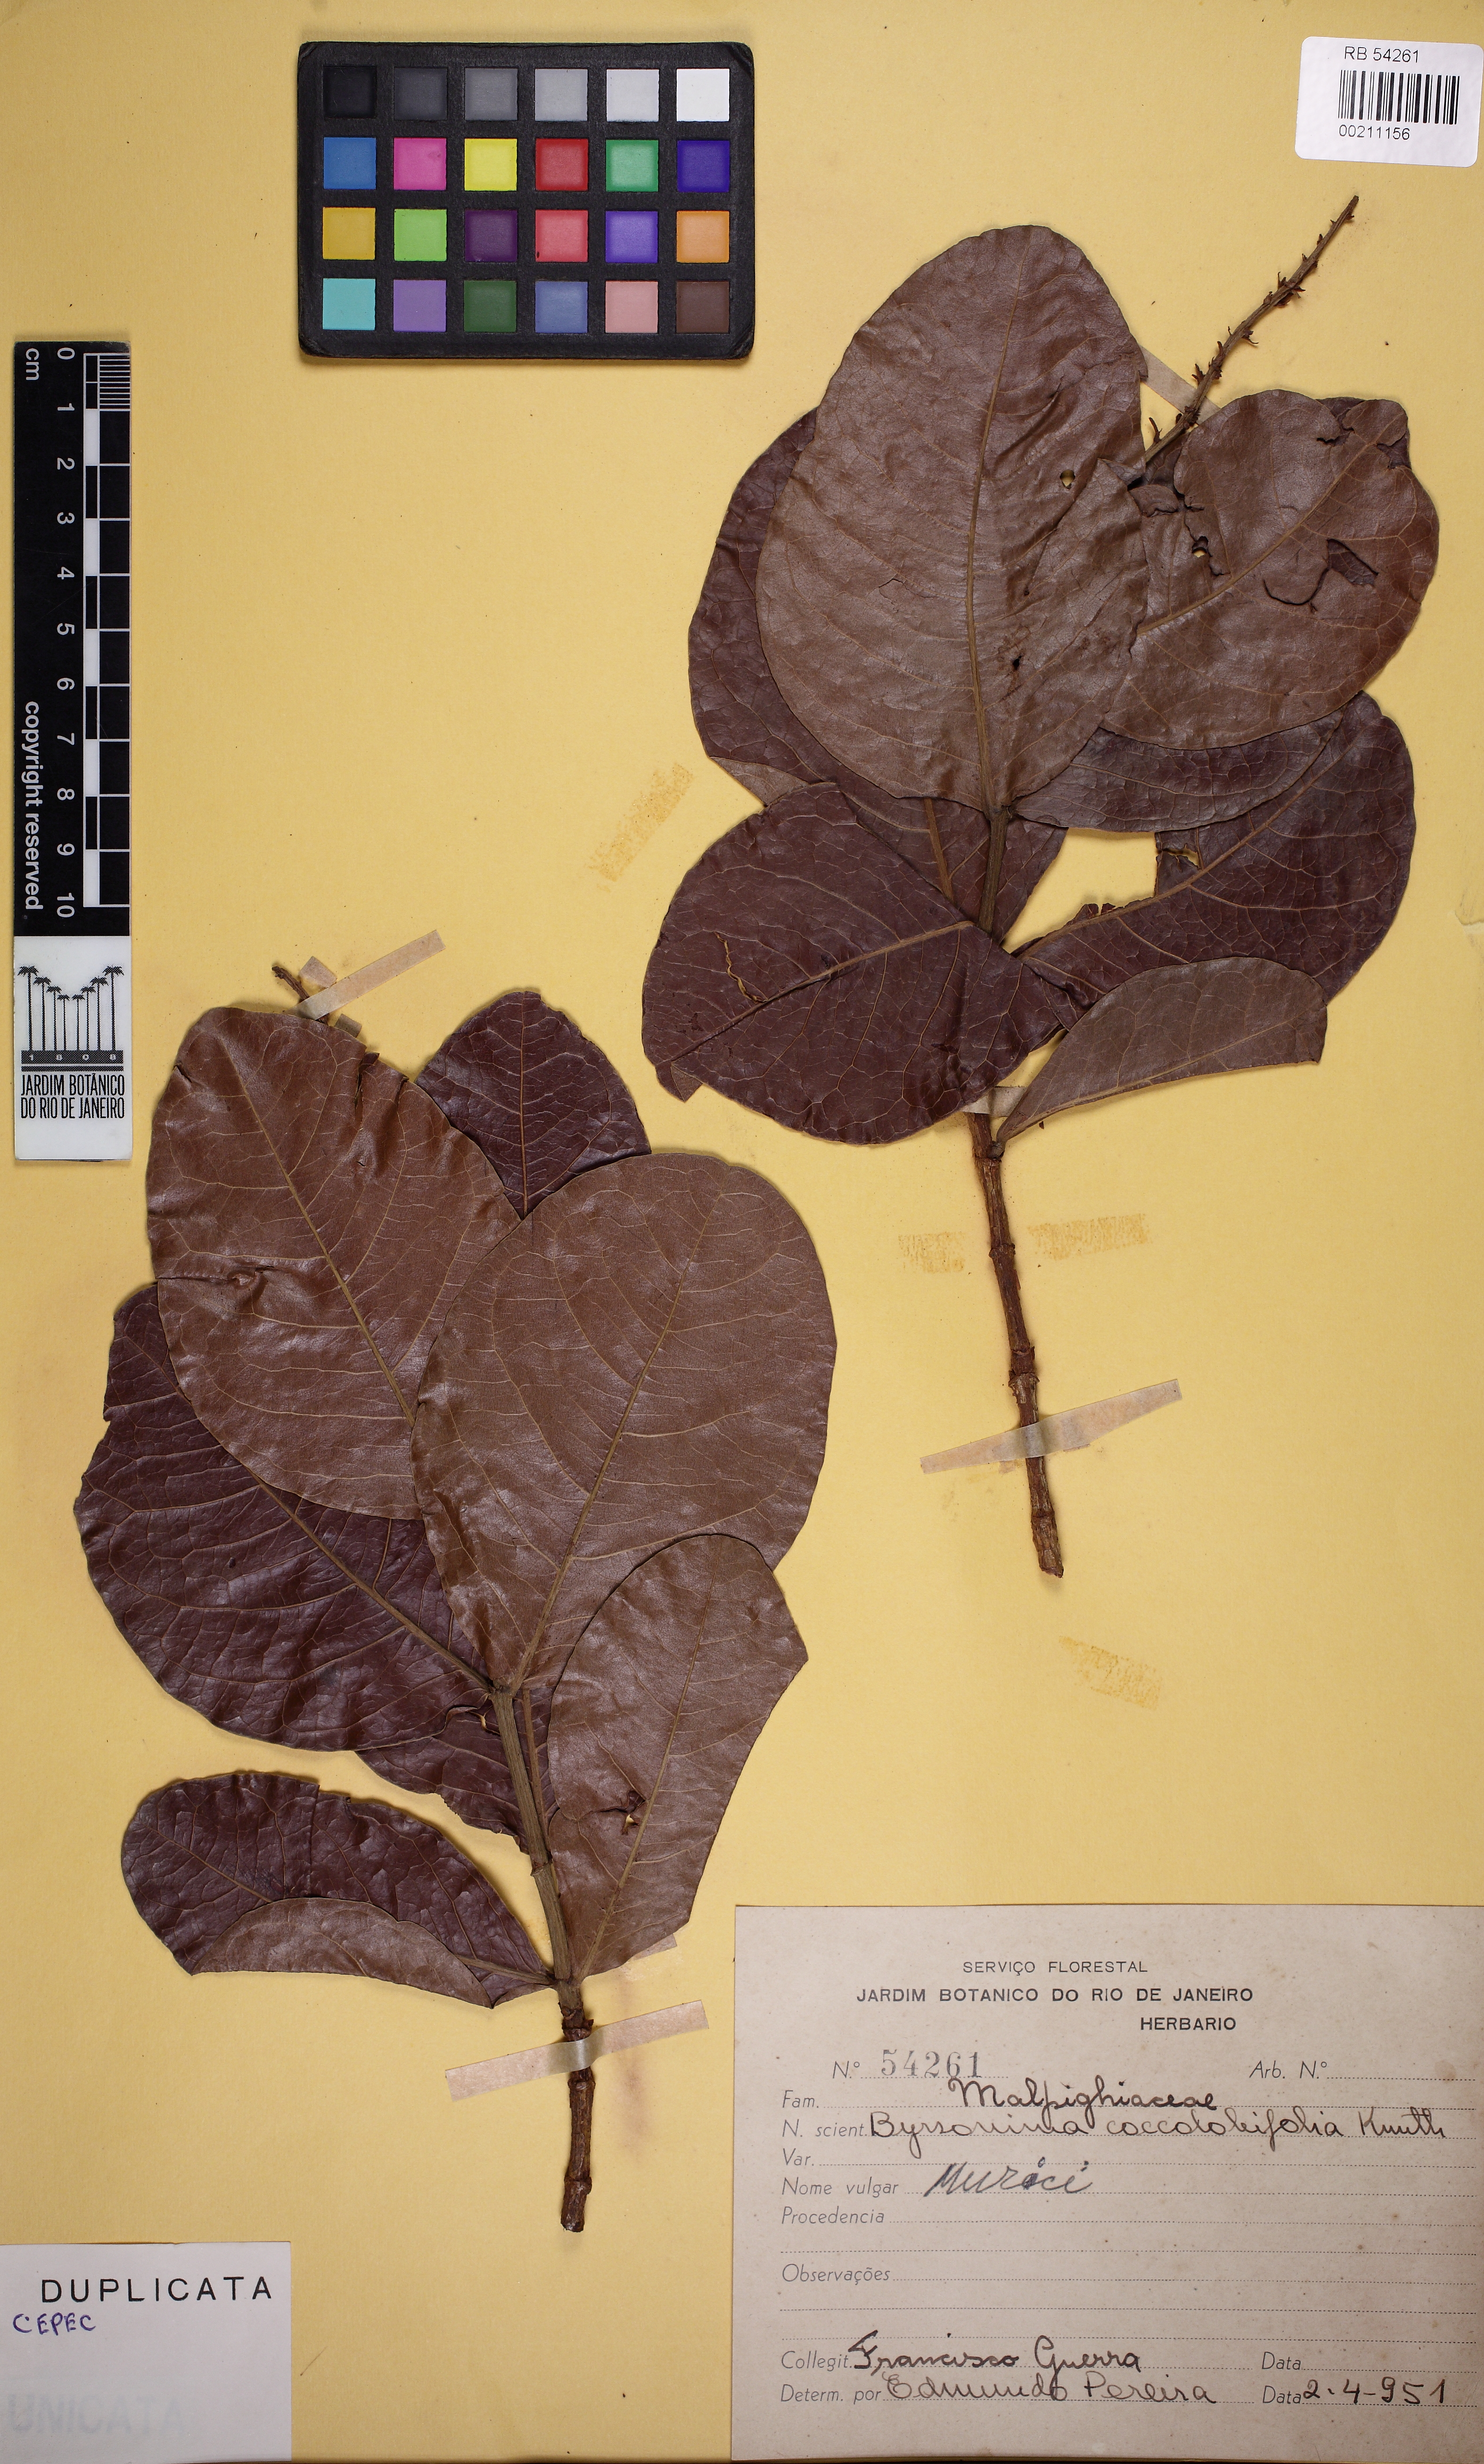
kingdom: Plantae
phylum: Tracheophyta
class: Magnoliopsida
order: Malpighiales
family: Malpighiaceae
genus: Byrsonima
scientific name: Byrsonima coccolobifolia
